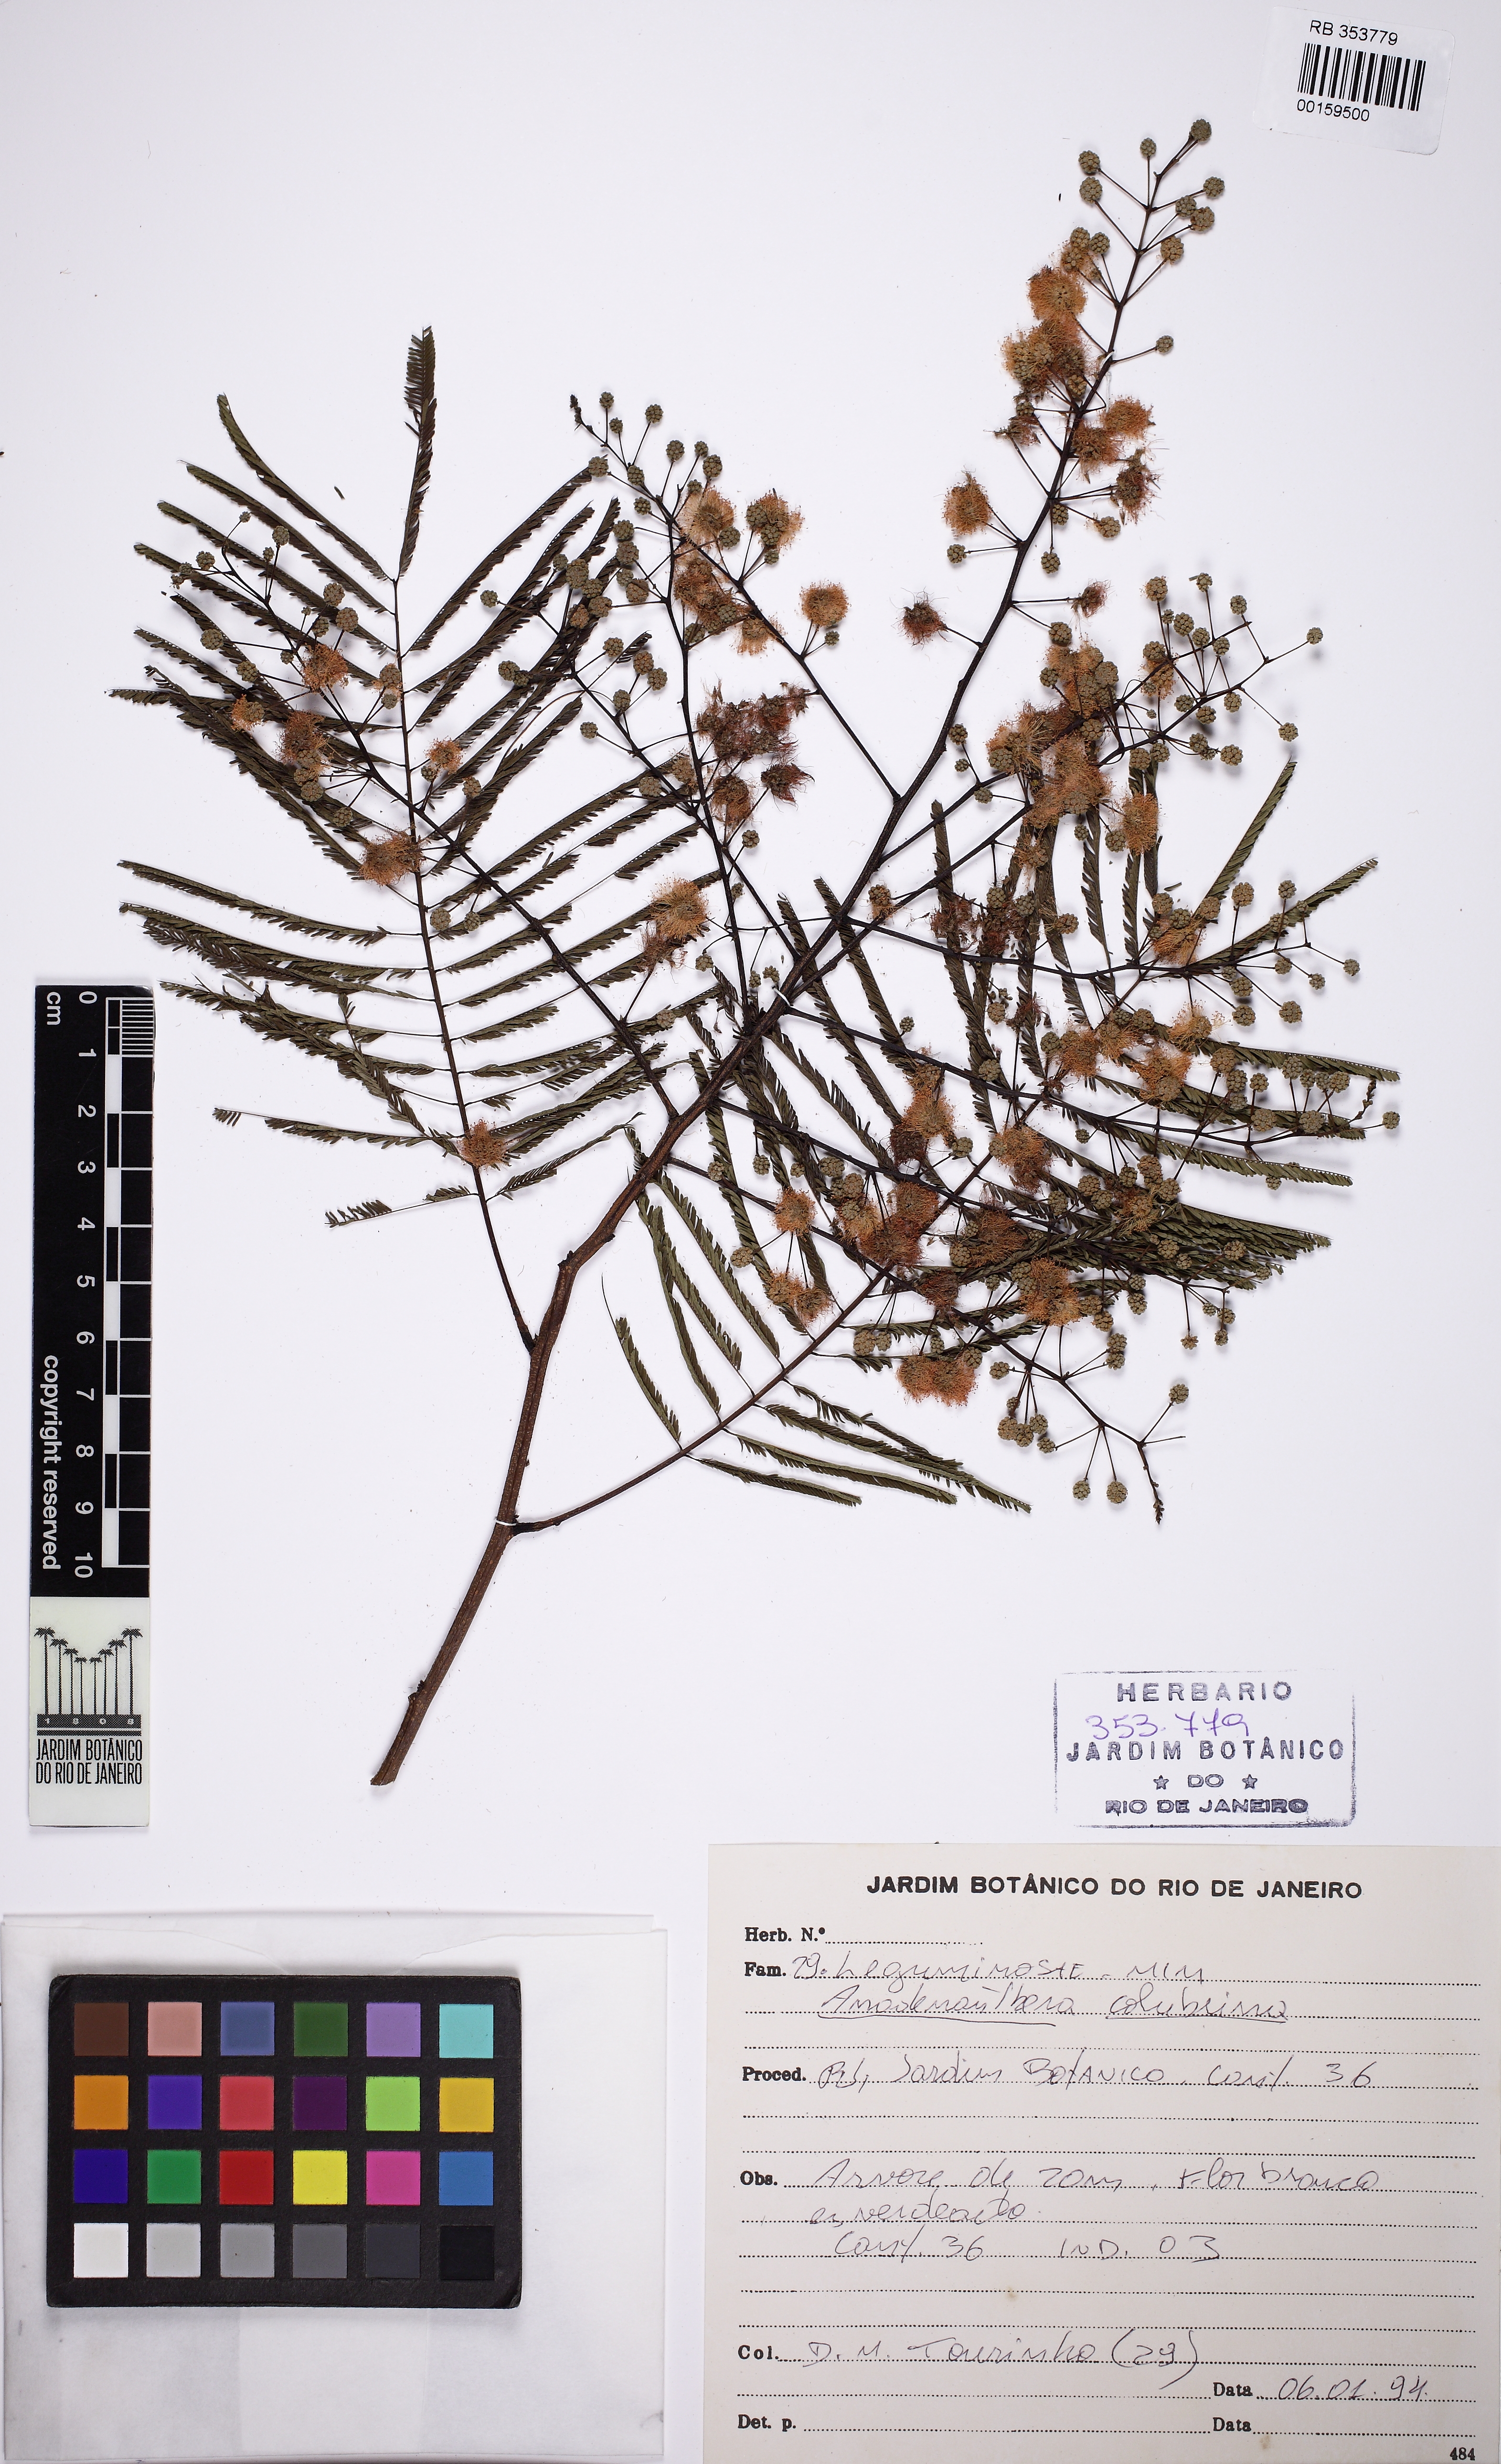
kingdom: Plantae
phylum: Tracheophyta
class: Magnoliopsida
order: Fabales
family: Fabaceae
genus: Anadenanthera
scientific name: Anadenanthera colubrina
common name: Curupay
